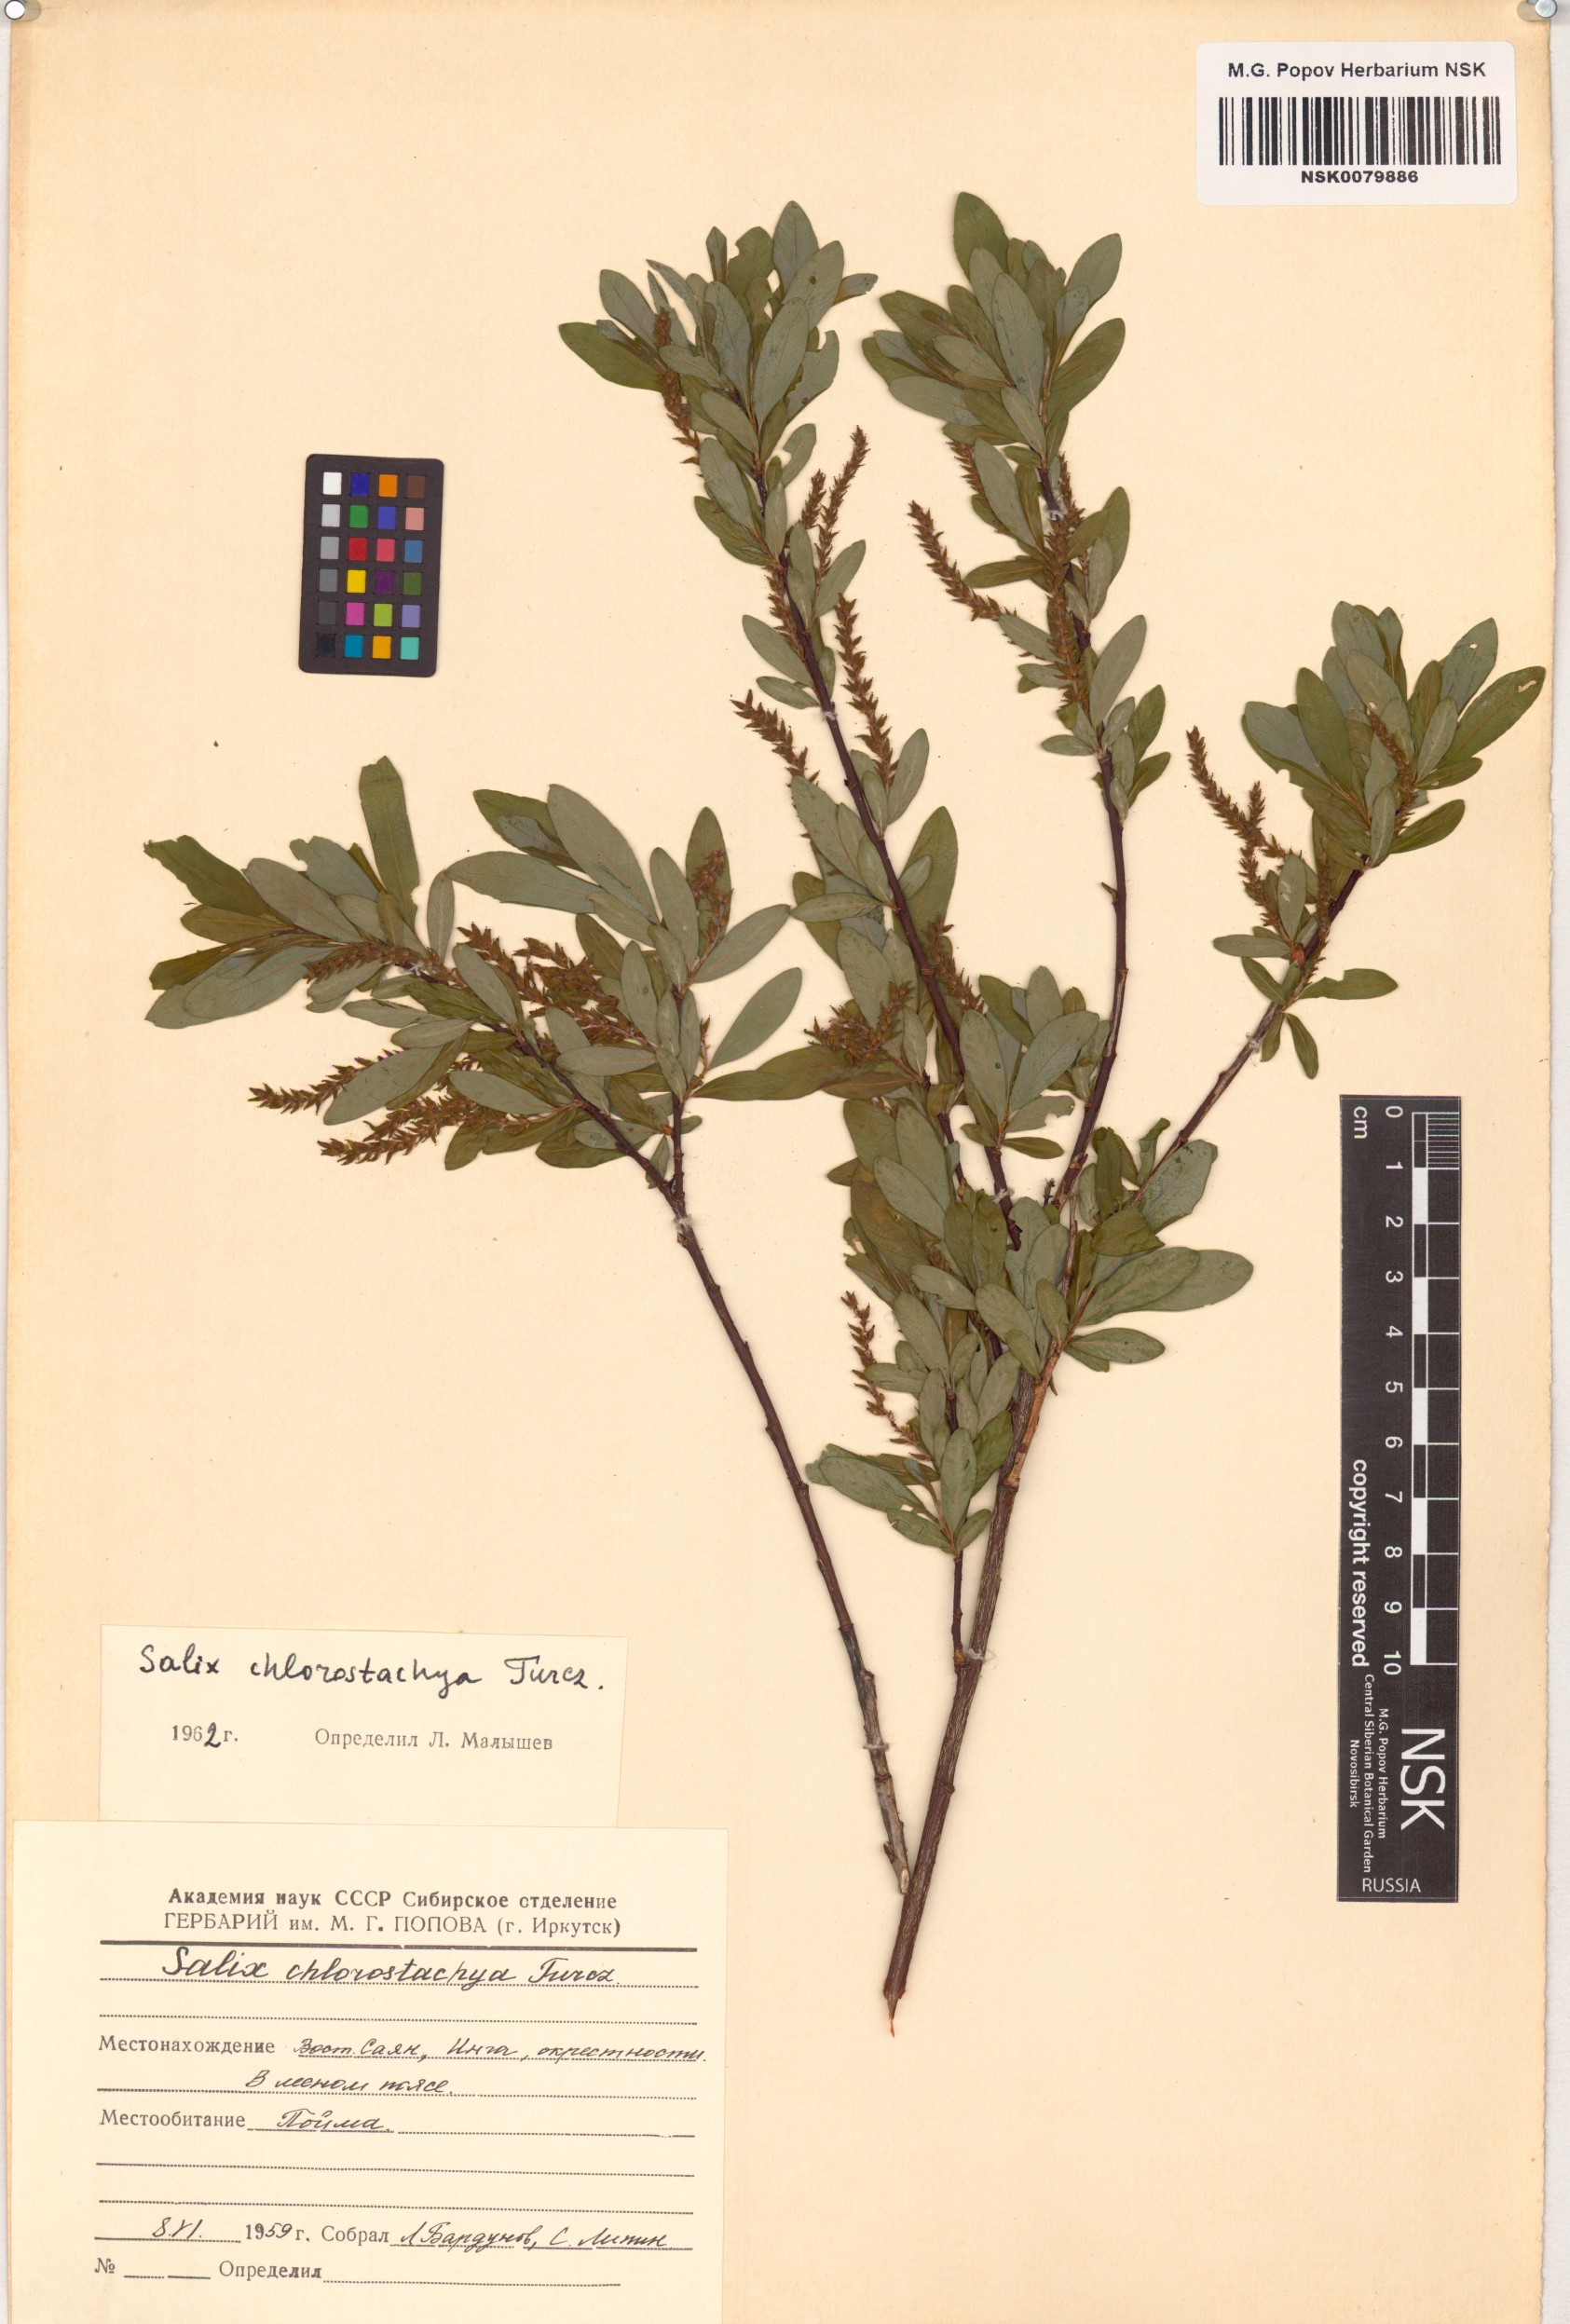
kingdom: Plantae
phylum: Tracheophyta
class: Magnoliopsida
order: Malpighiales
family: Salicaceae
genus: Salix
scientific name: Salix rhamnifolia
